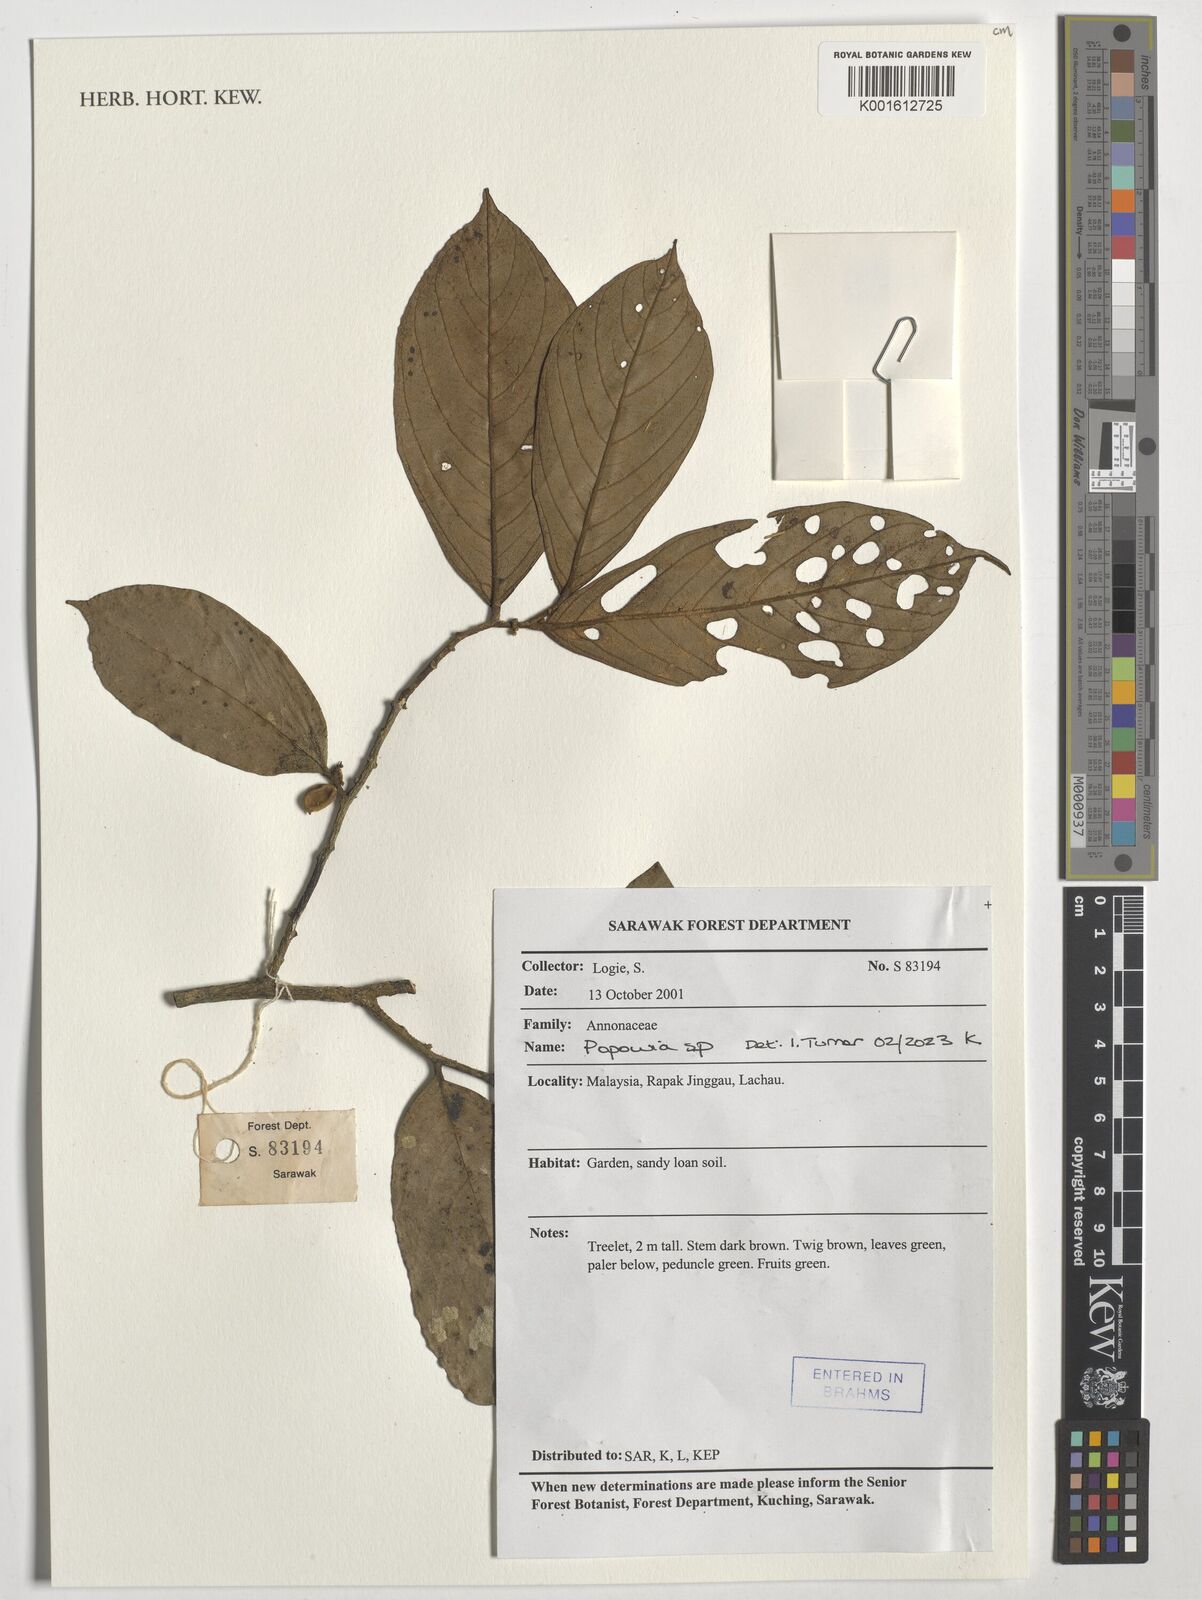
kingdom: Plantae
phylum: Tracheophyta
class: Magnoliopsida
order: Magnoliales
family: Annonaceae
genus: Popowia
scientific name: Popowia
